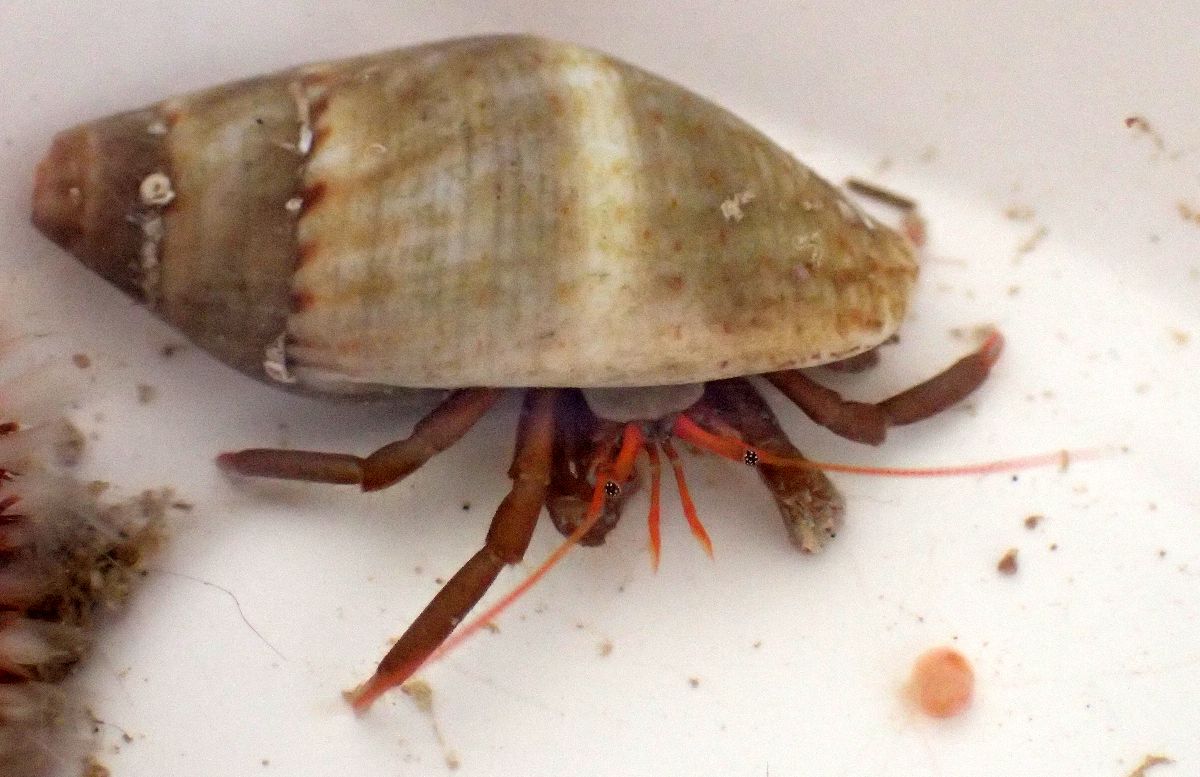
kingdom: Animalia
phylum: Arthropoda
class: Malacostraca
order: Decapoda
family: Diogenidae
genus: Clibanarius
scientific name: Clibanarius erythropus
